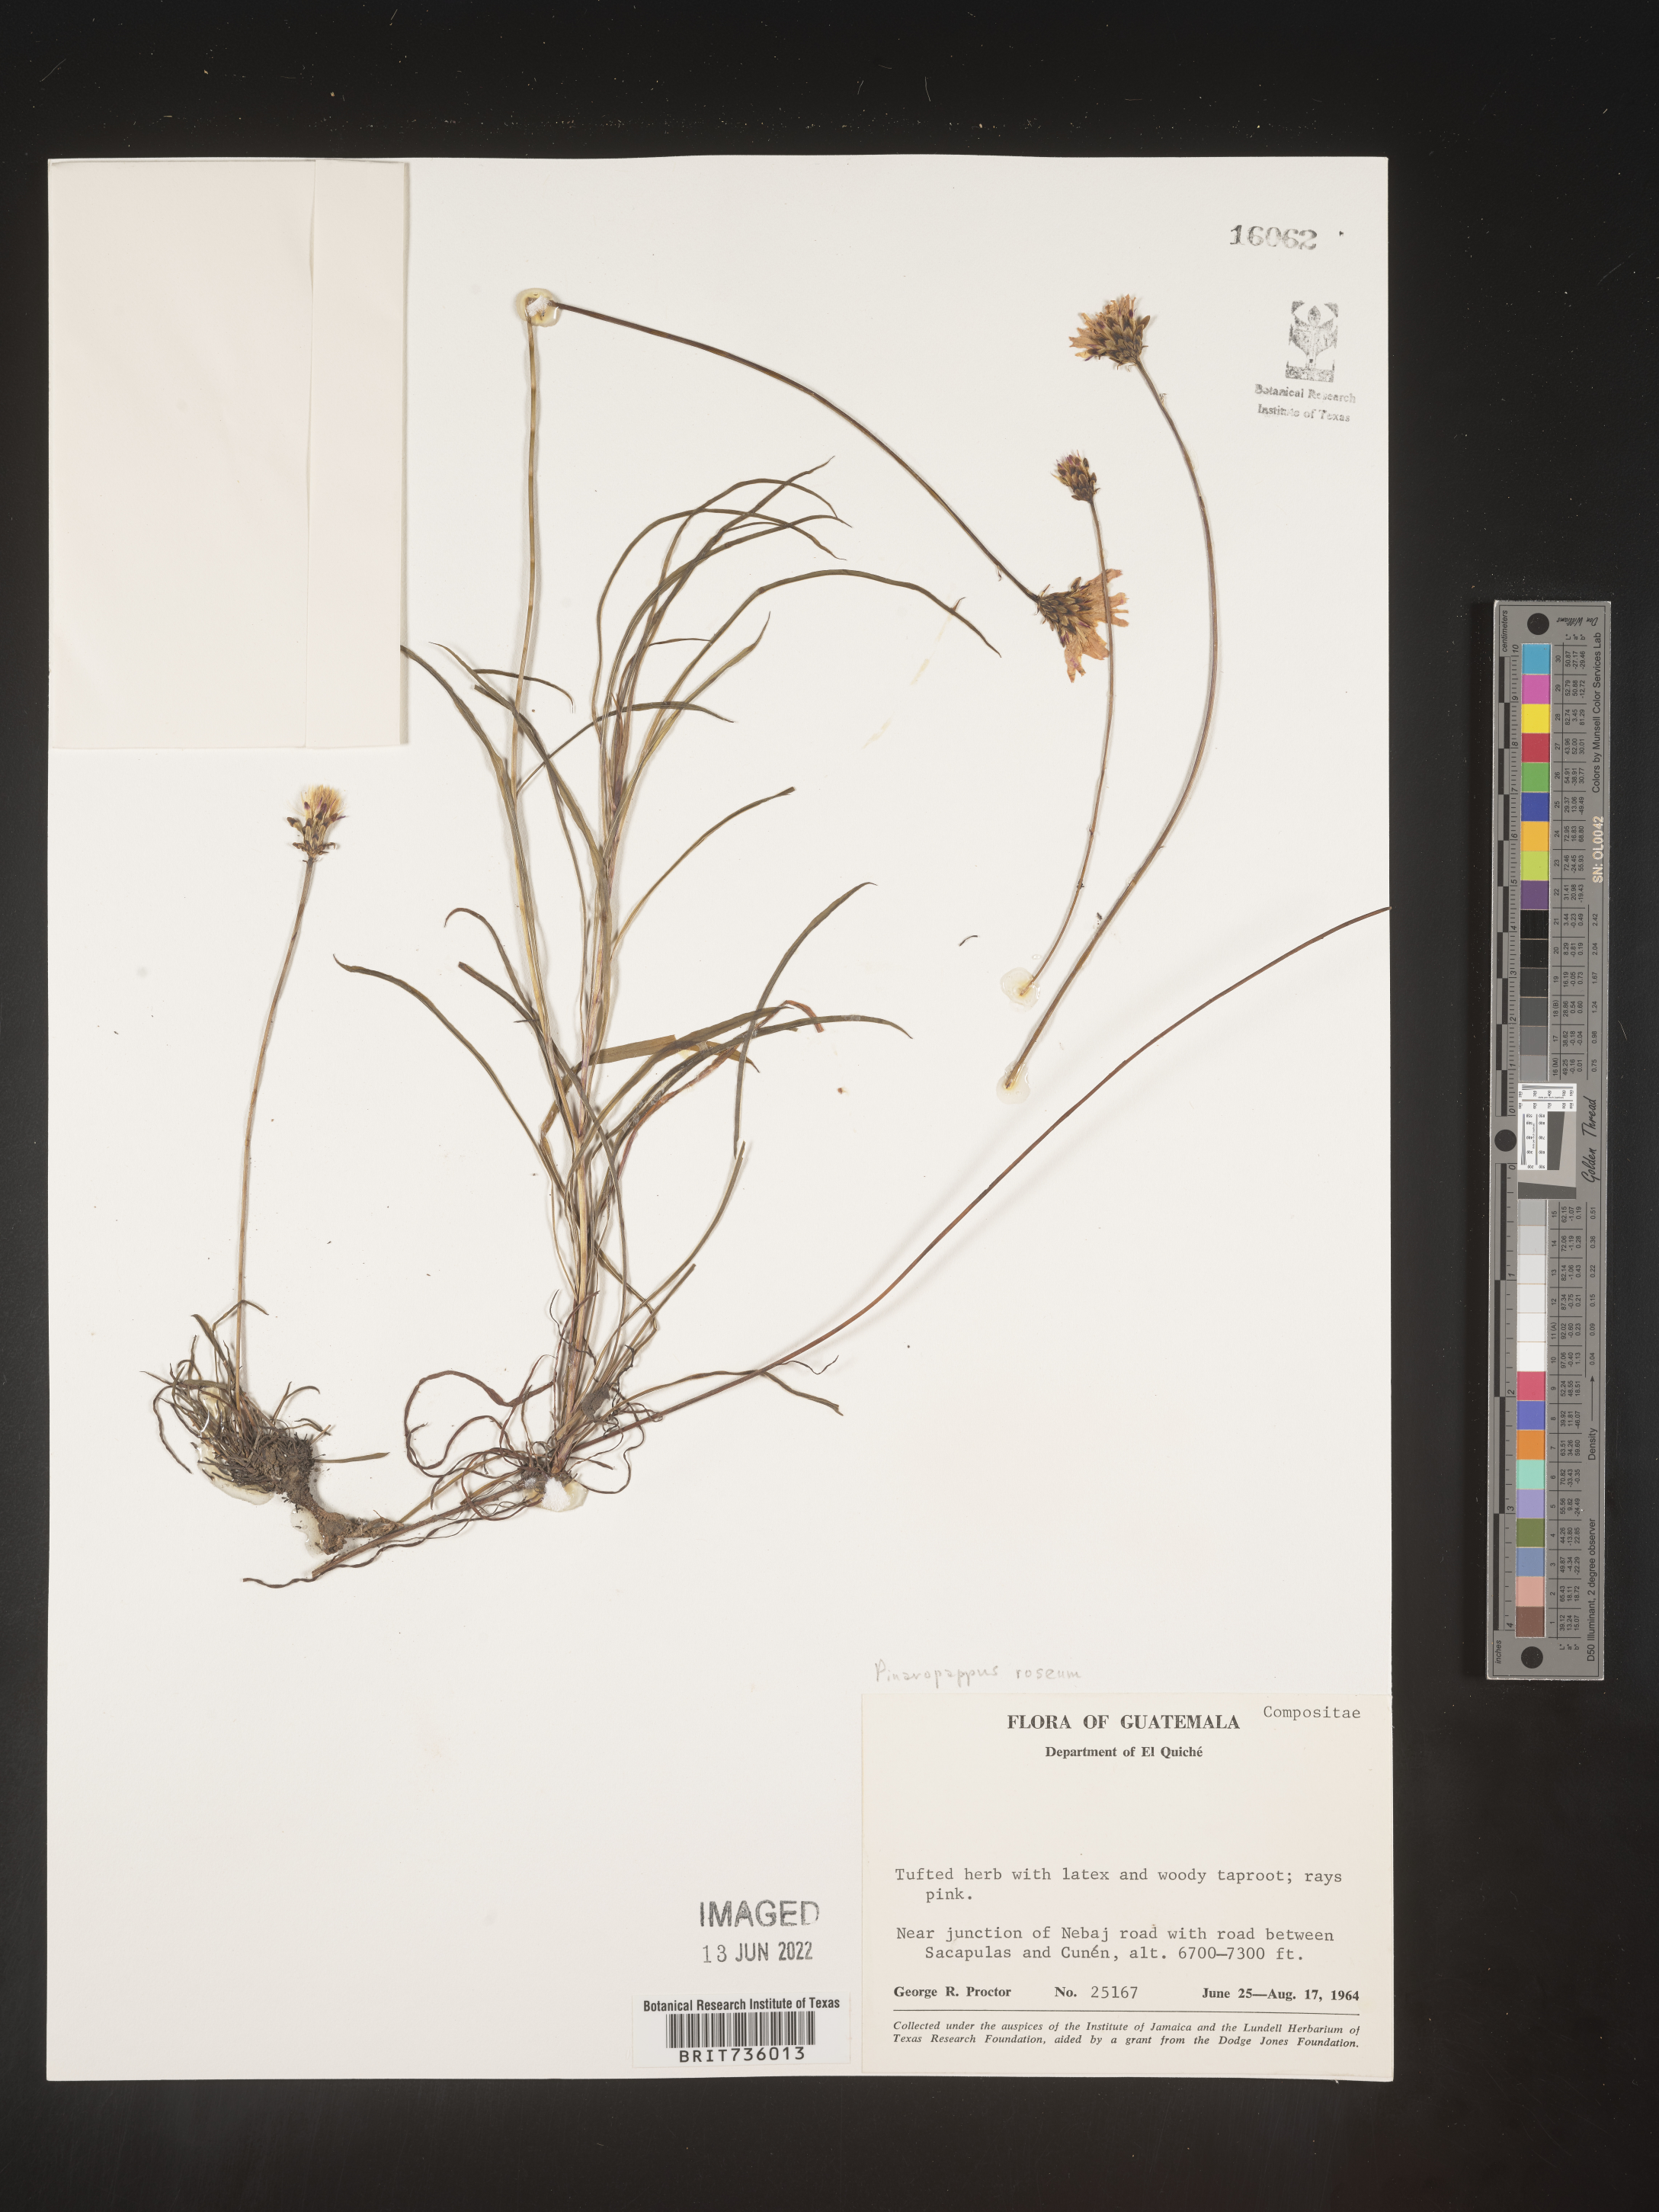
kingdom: Plantae
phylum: Tracheophyta
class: Magnoliopsida
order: Asterales
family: Asteraceae
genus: Pinaropappus
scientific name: Pinaropappus
